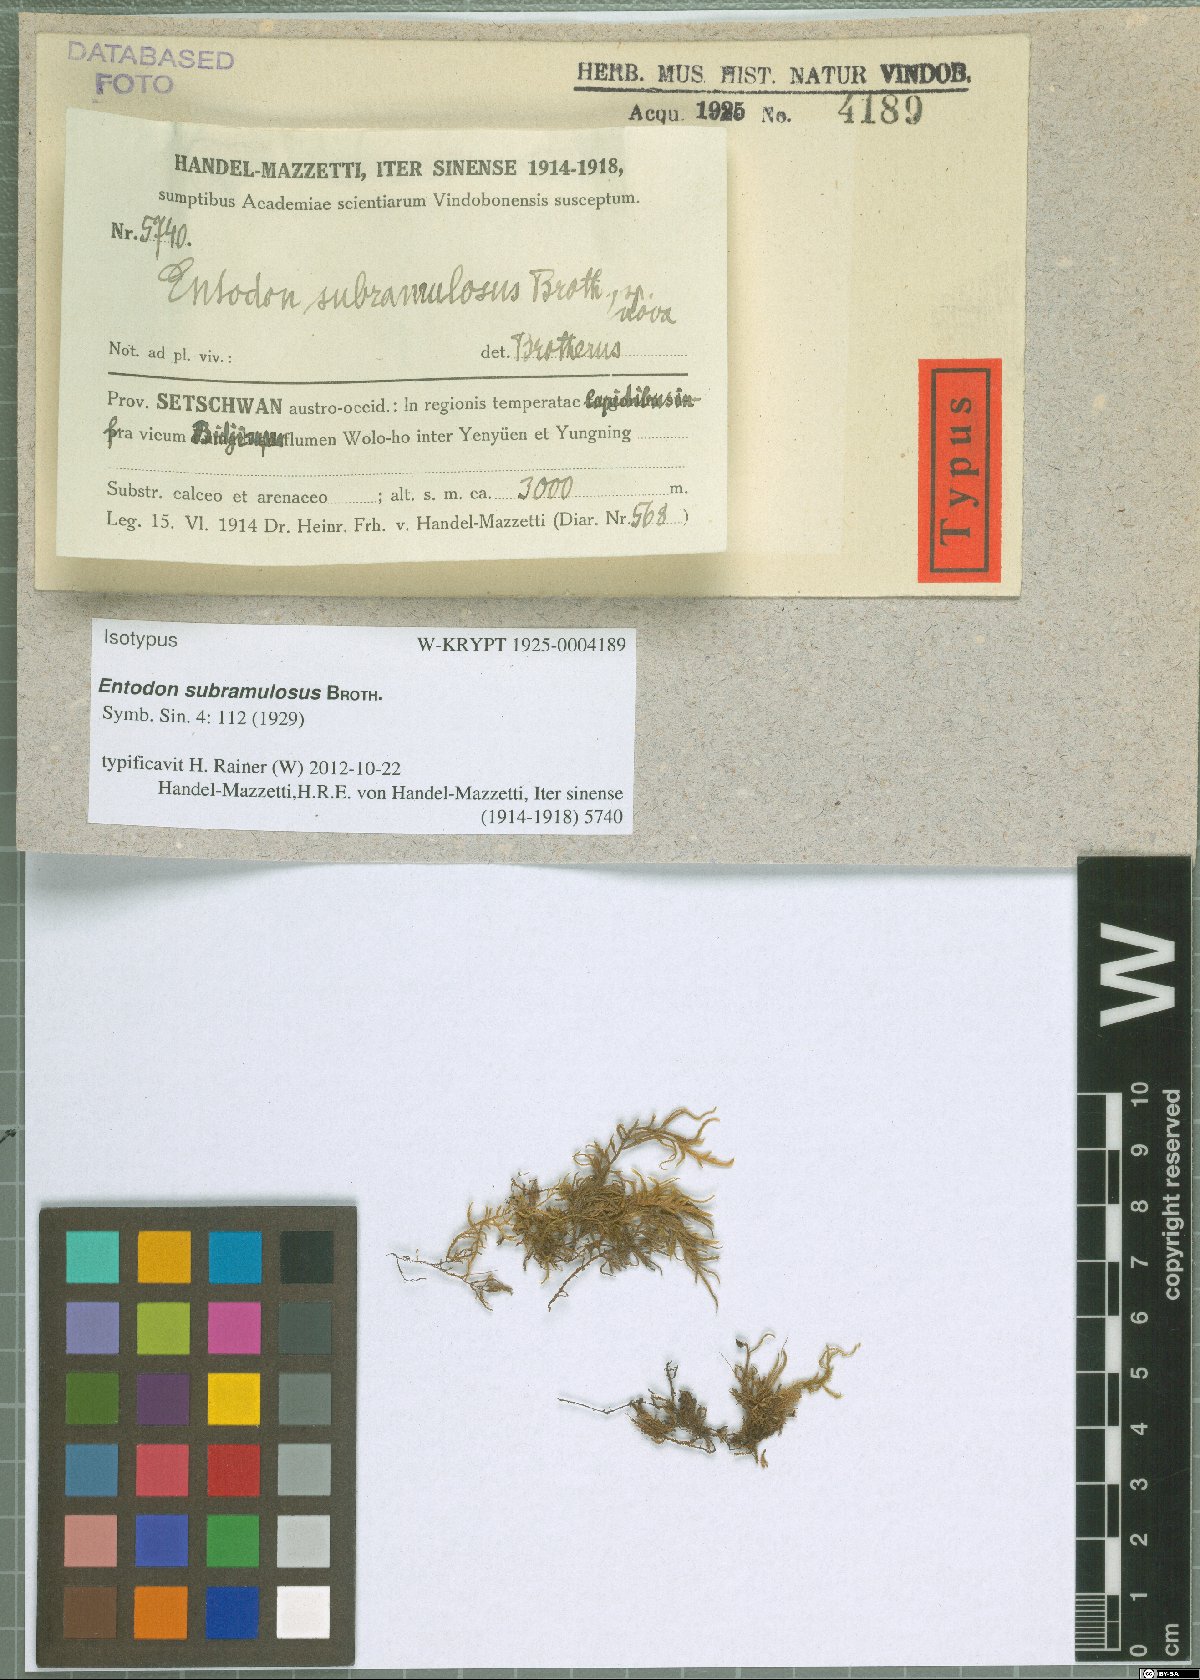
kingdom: Plantae
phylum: Bryophyta
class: Bryopsida
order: Hypnales
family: Entodontaceae
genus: Entodon
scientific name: Entodon concinnus
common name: Montagne's cylinder-moss
